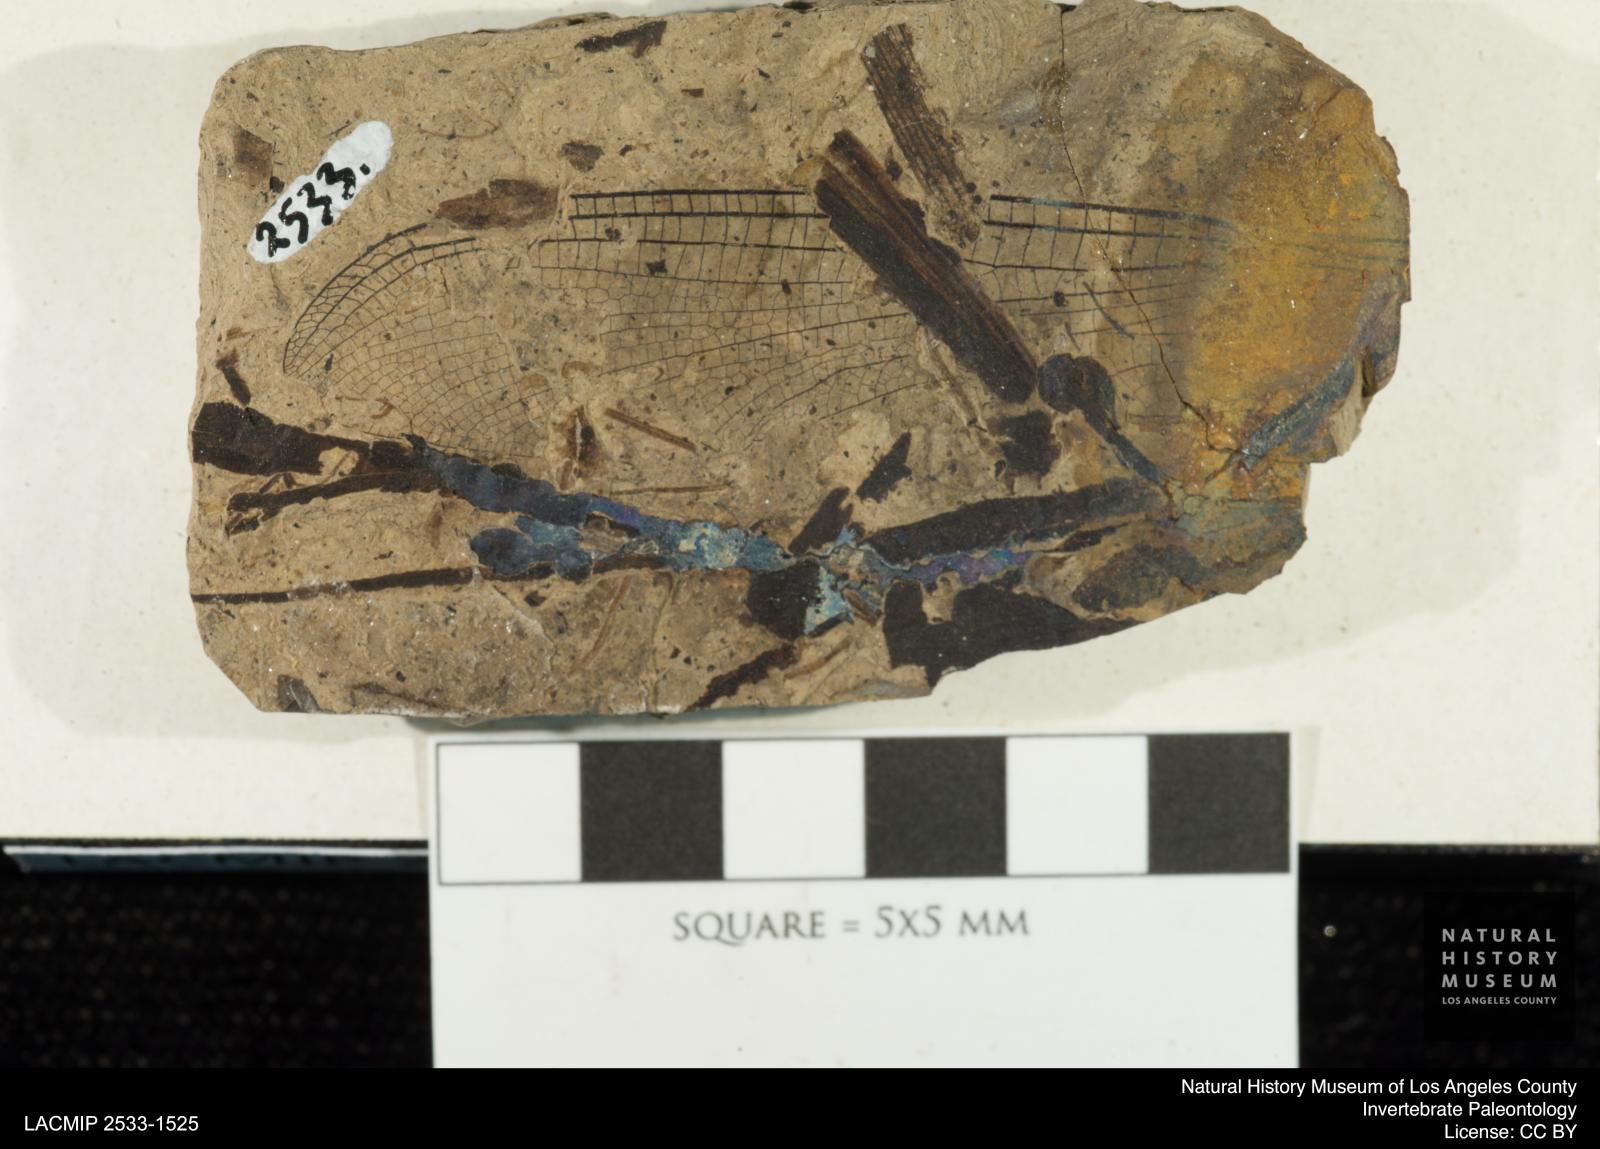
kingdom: Animalia
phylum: Arthropoda
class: Insecta
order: Odonata
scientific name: Odonata
